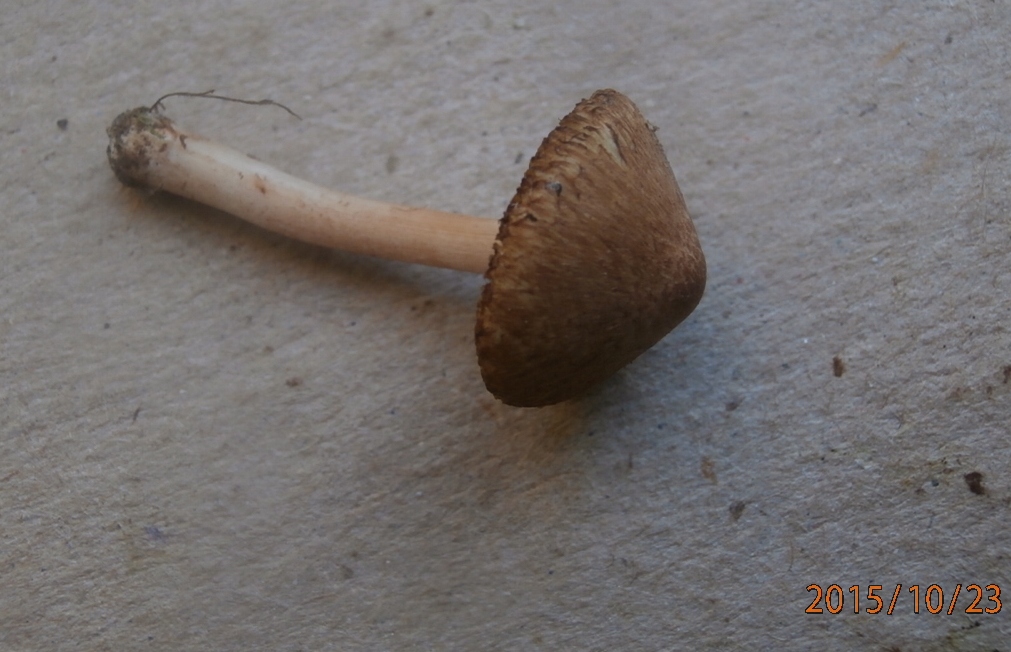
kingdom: Fungi
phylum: Basidiomycota
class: Agaricomycetes
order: Agaricales
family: Inocybaceae
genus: Inocybe
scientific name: Inocybe
